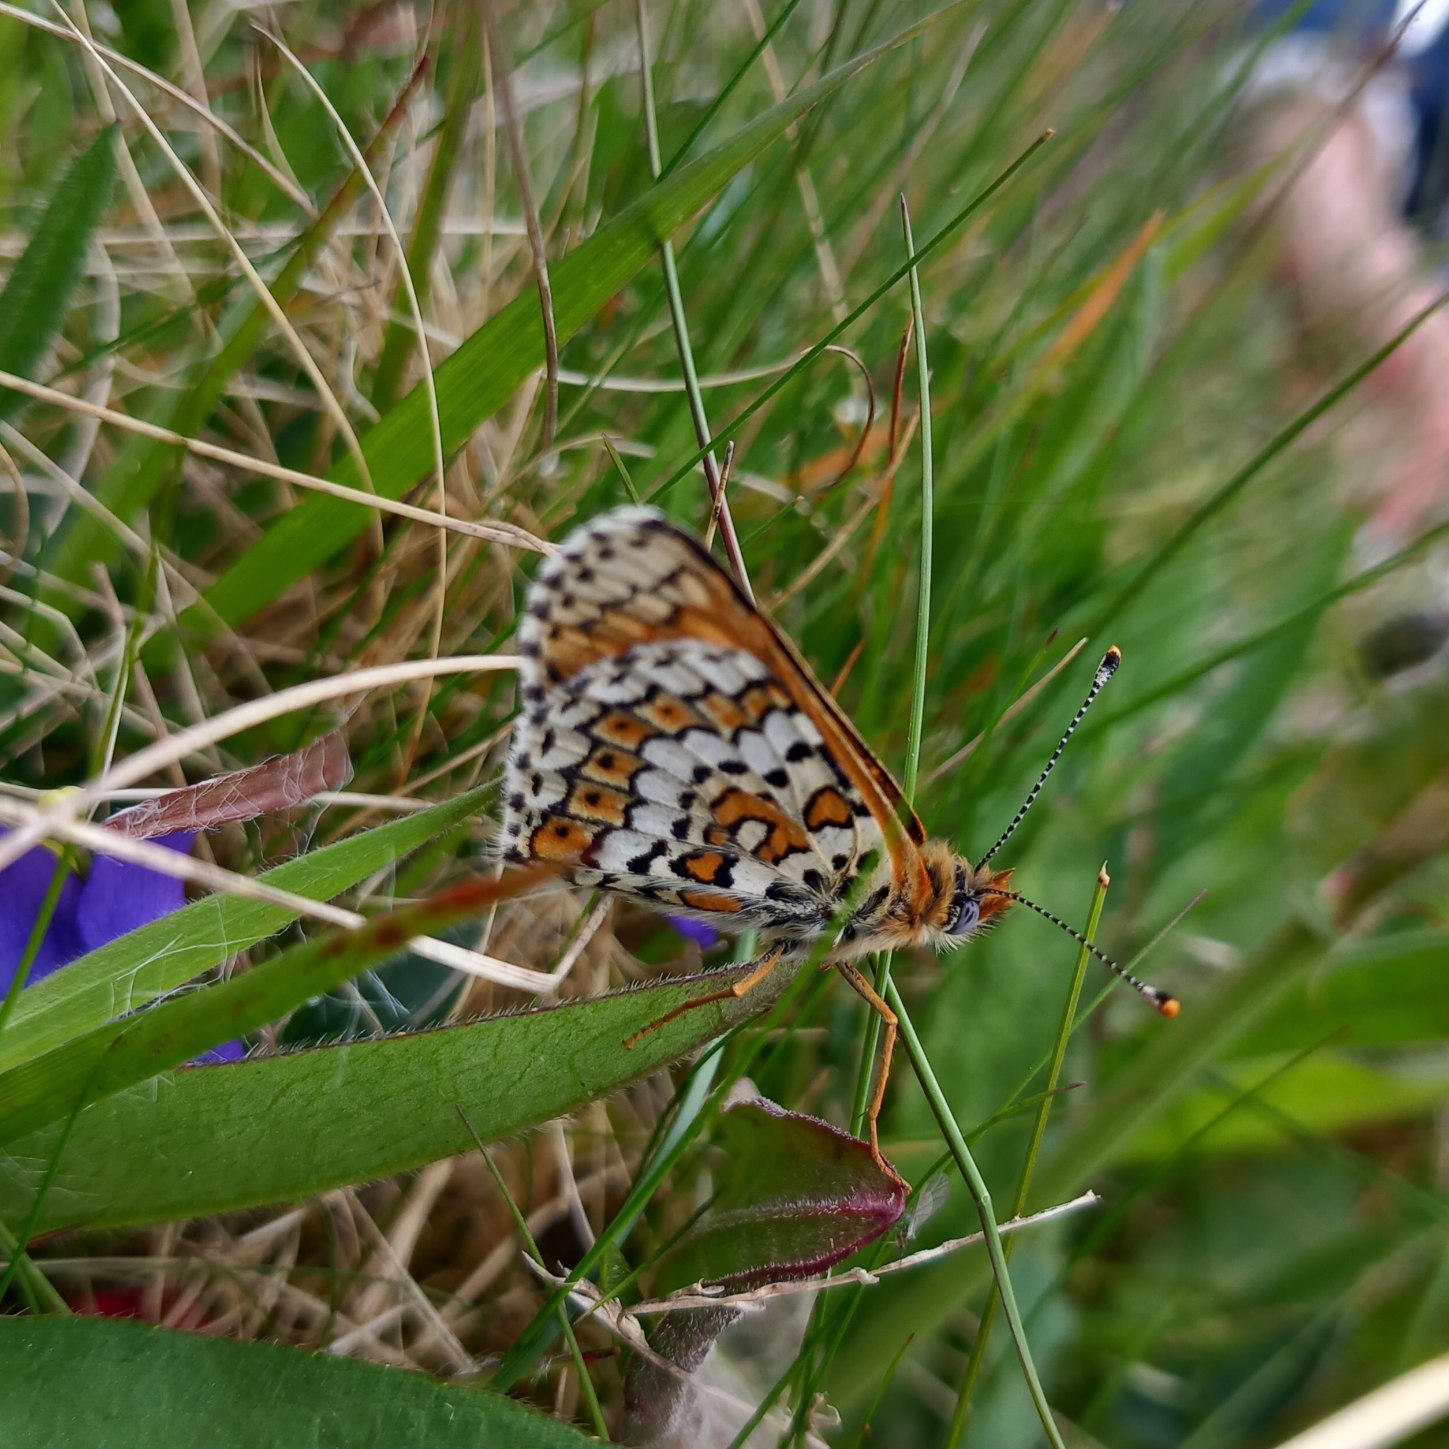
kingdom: Animalia
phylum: Arthropoda
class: Insecta
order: Lepidoptera
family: Nymphalidae
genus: Melitaea
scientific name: Melitaea cinxia
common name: Okkergul pletvinge
